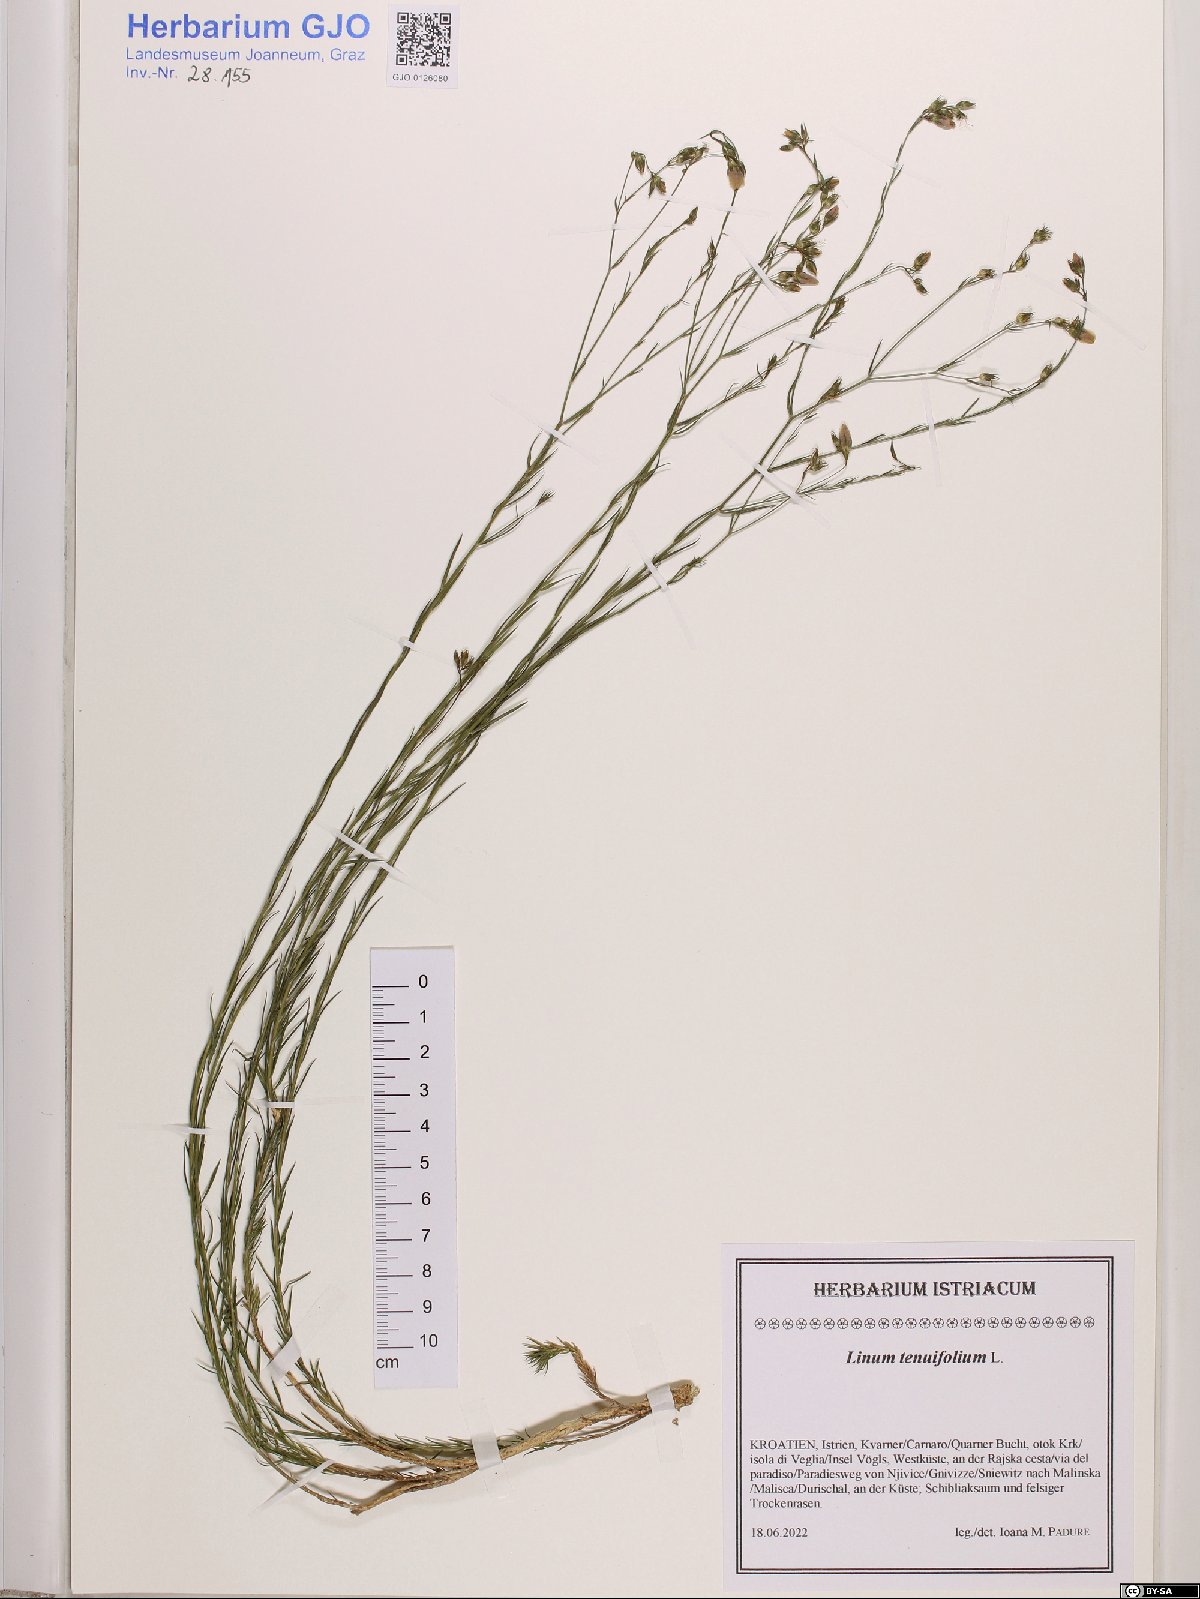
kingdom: Plantae
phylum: Tracheophyta
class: Magnoliopsida
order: Malpighiales
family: Linaceae
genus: Linum
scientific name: Linum tenuifolium
